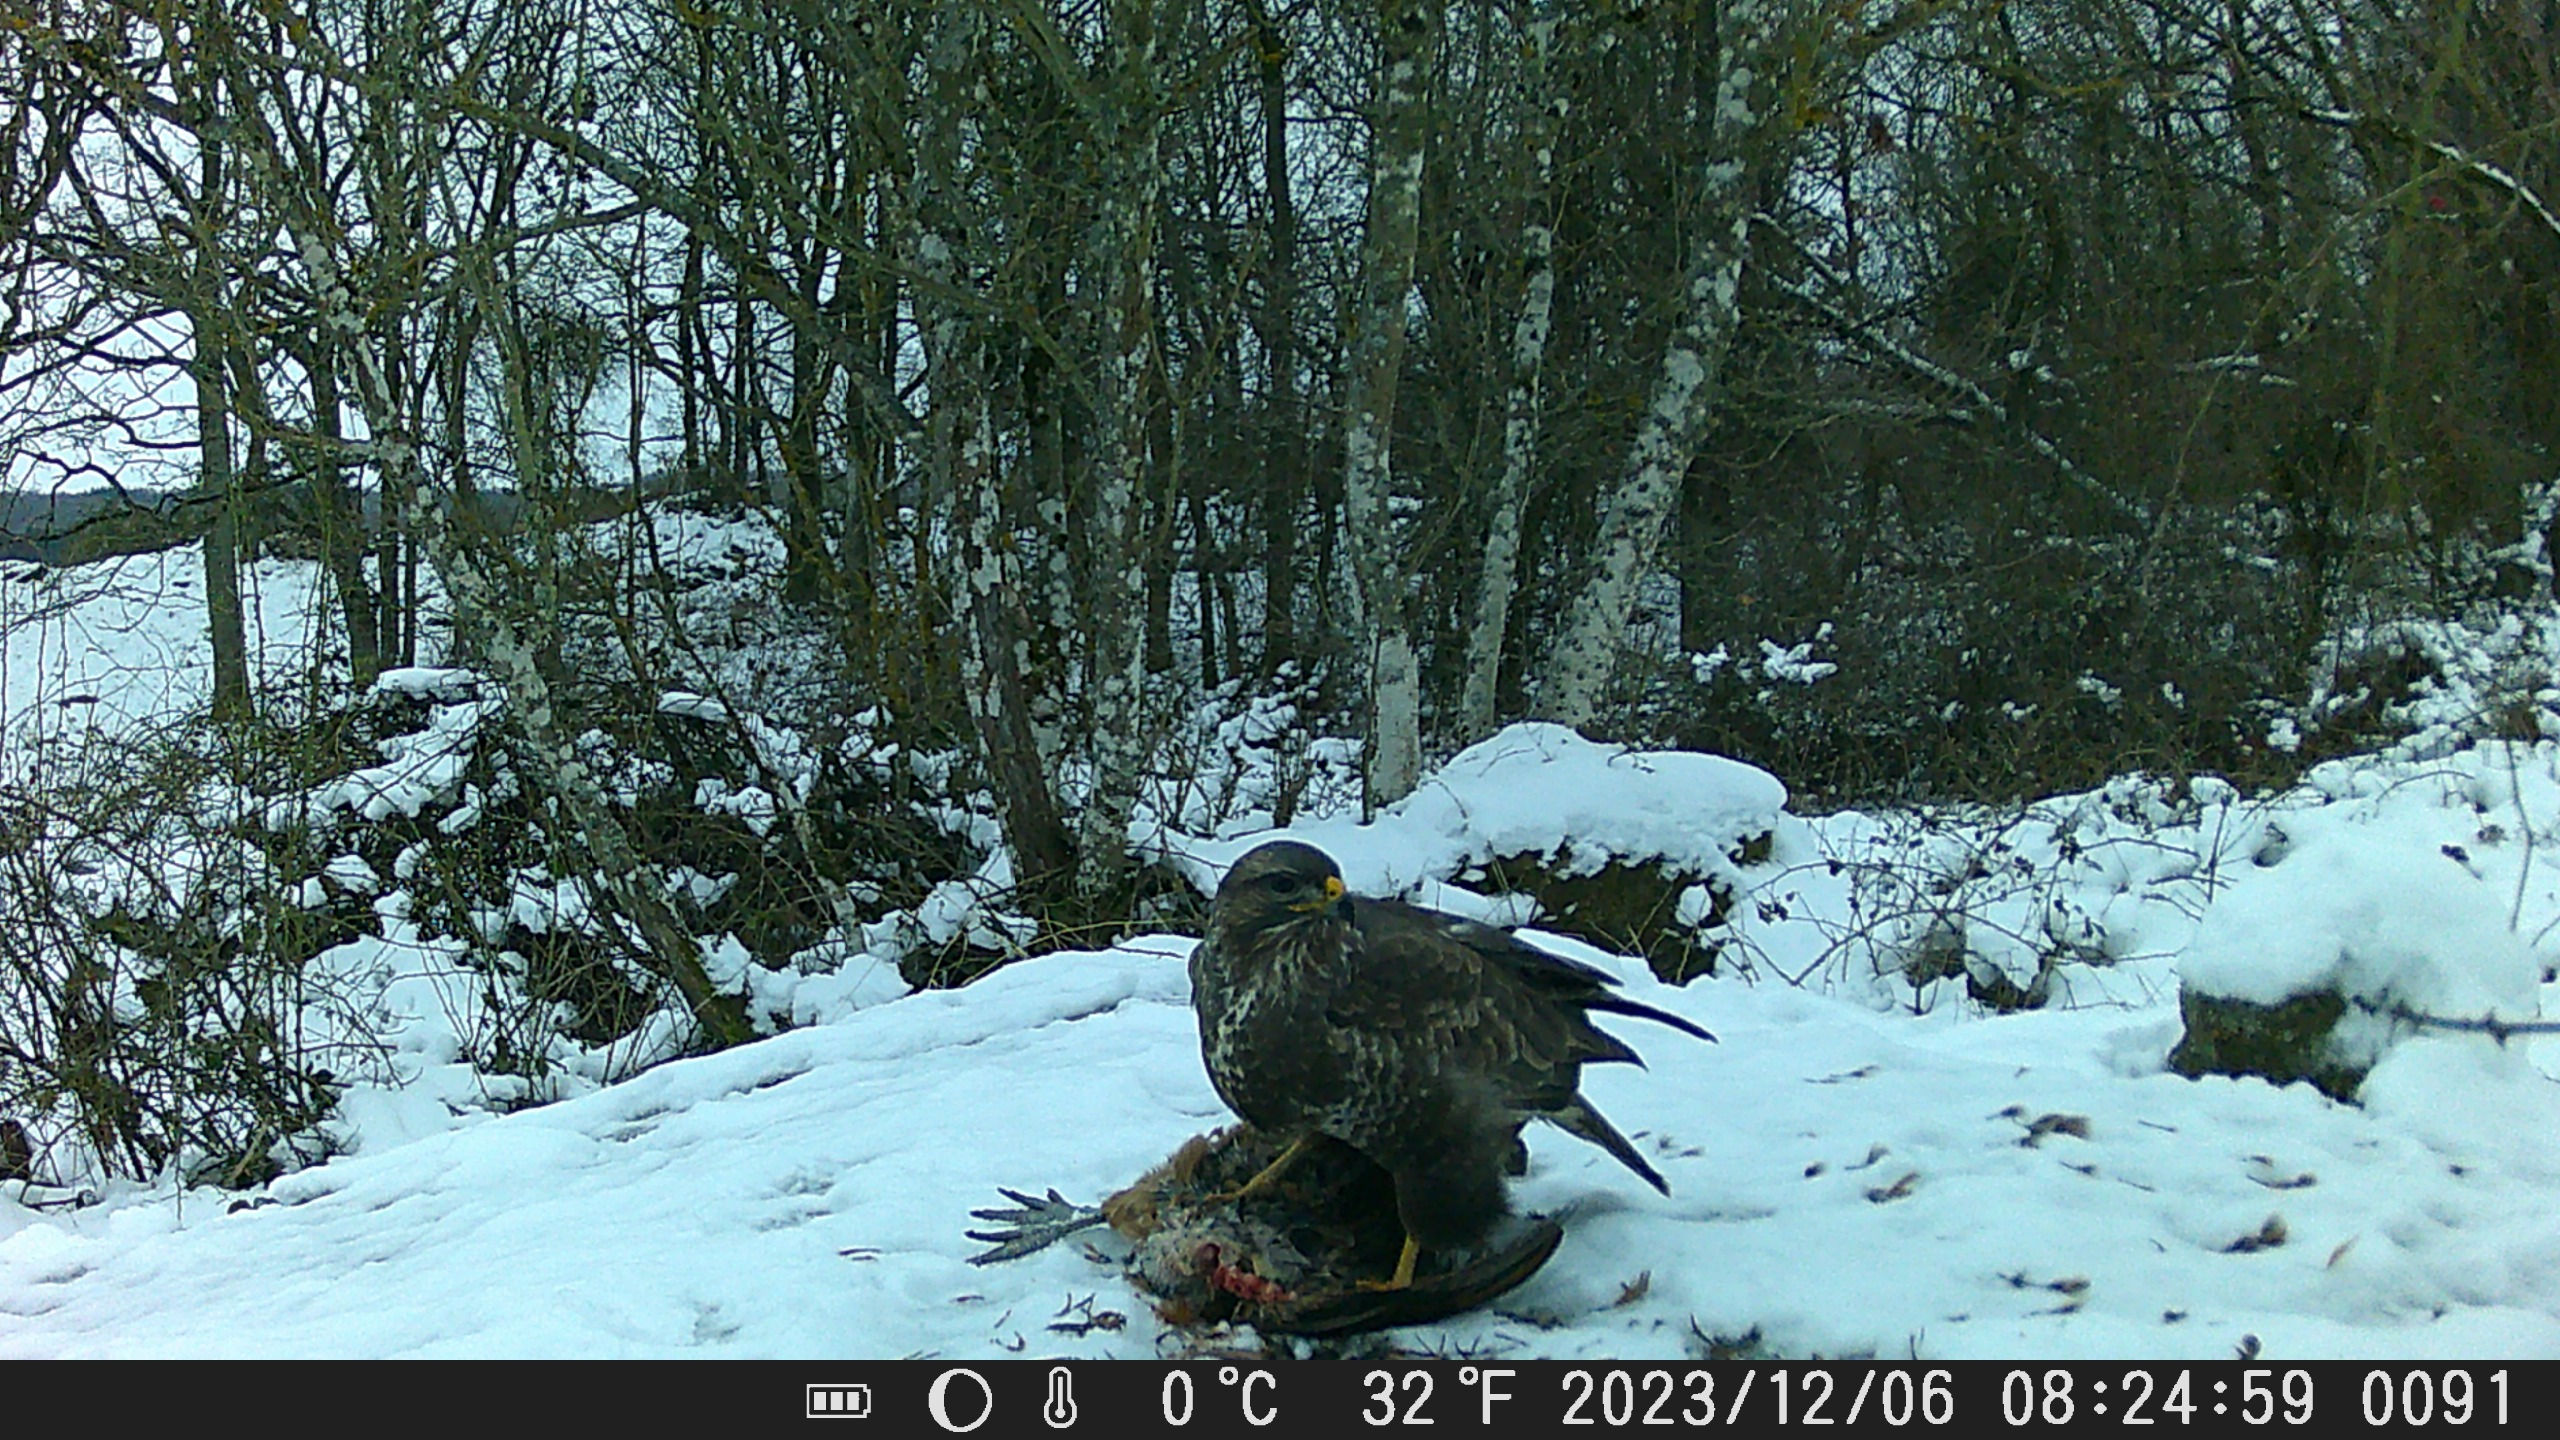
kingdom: Animalia
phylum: Chordata
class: Aves
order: Accipitriformes
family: Accipitridae
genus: Buteo
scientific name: Buteo buteo
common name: Musvåge
